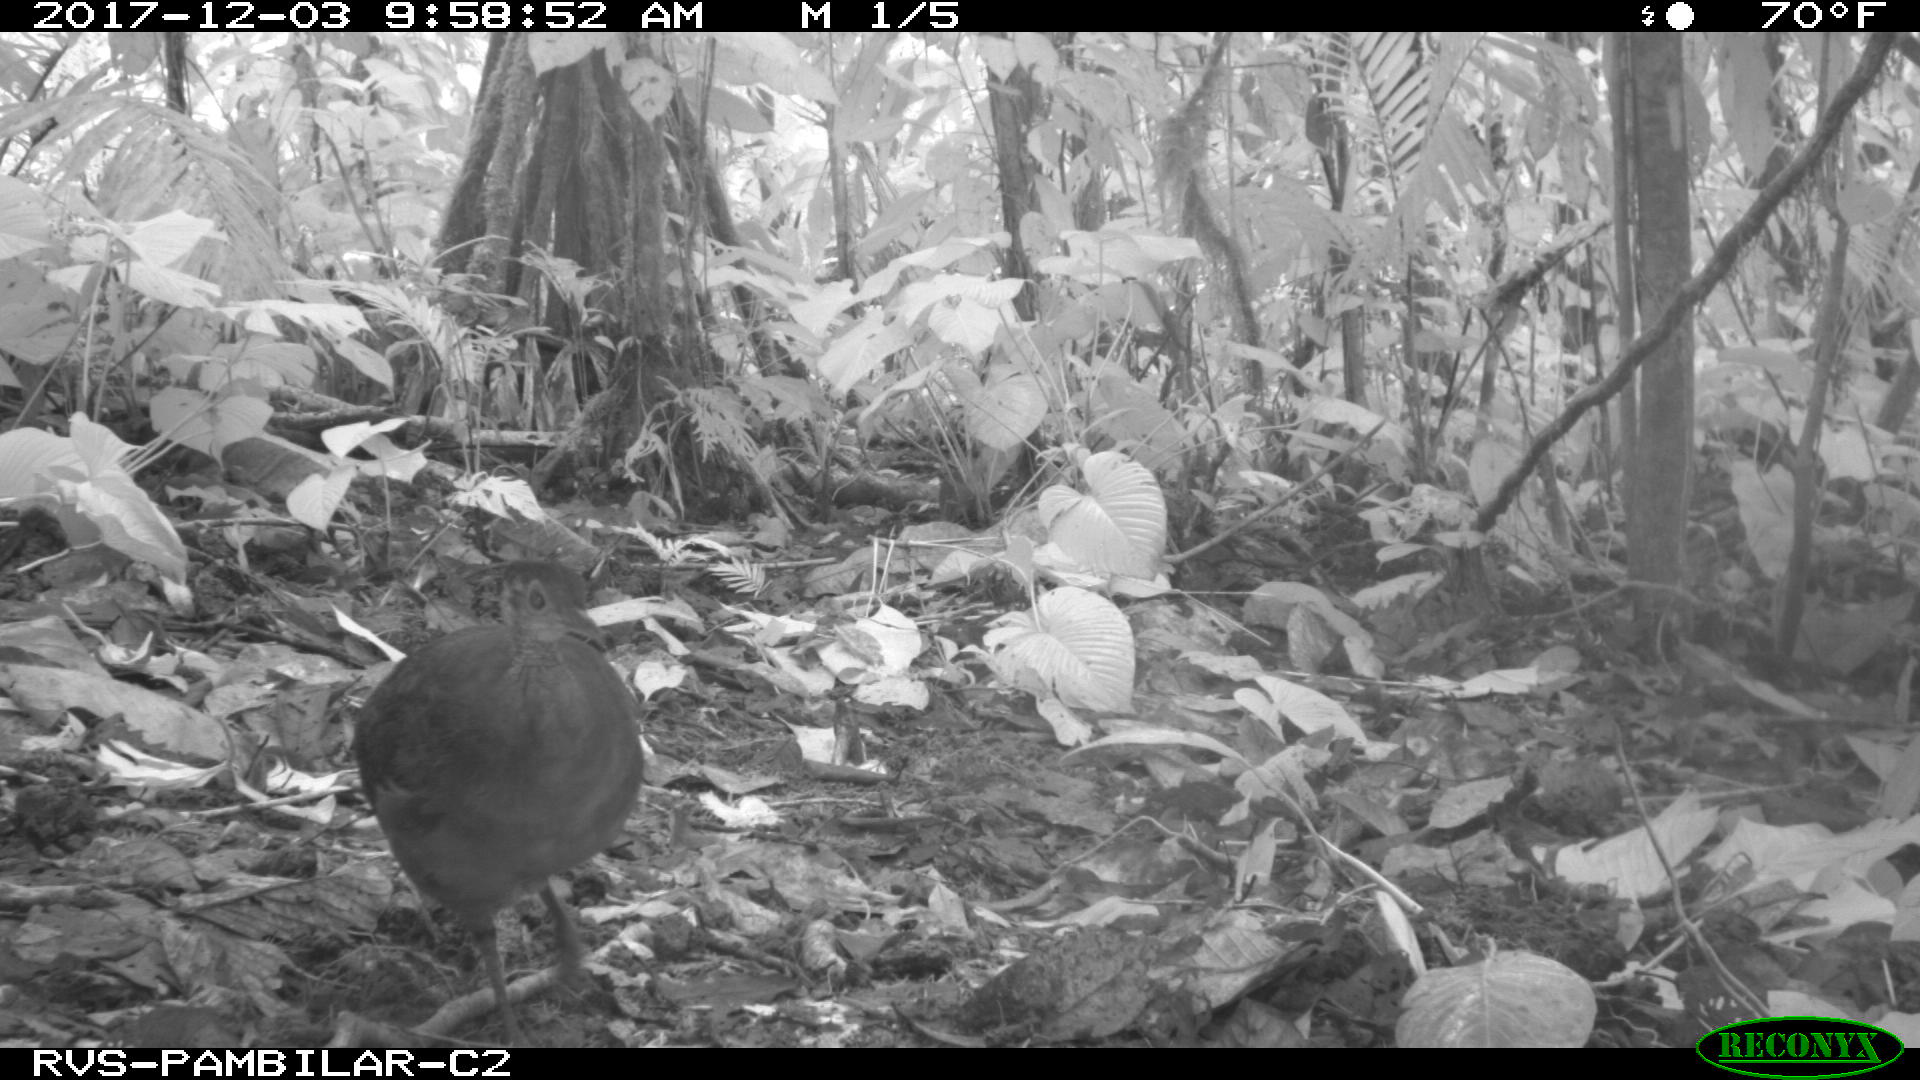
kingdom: Animalia
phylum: Chordata
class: Aves
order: Tinamiformes
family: Tinamidae
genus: Tinamus
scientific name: Tinamus major
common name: Great tinamou
